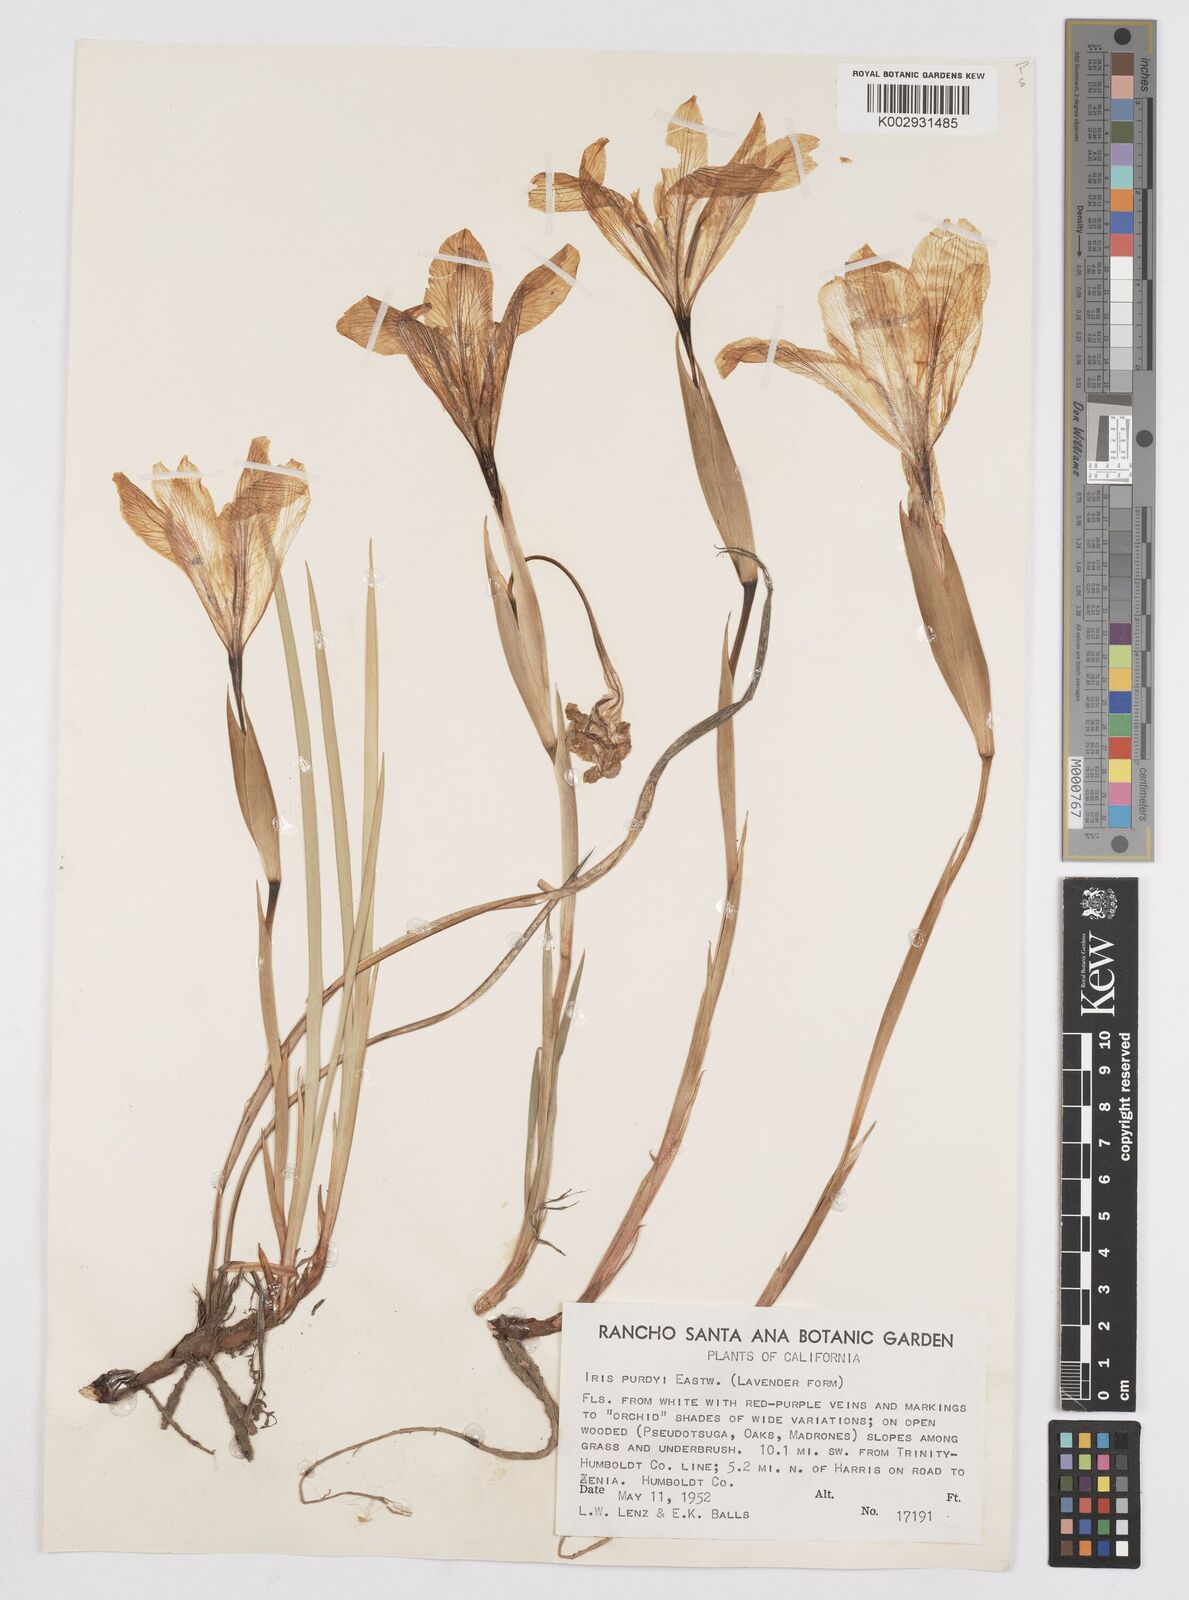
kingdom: Plantae
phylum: Tracheophyta
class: Liliopsida
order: Asparagales
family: Iridaceae
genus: Iris
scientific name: Iris purdyi
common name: Purdy's iris
